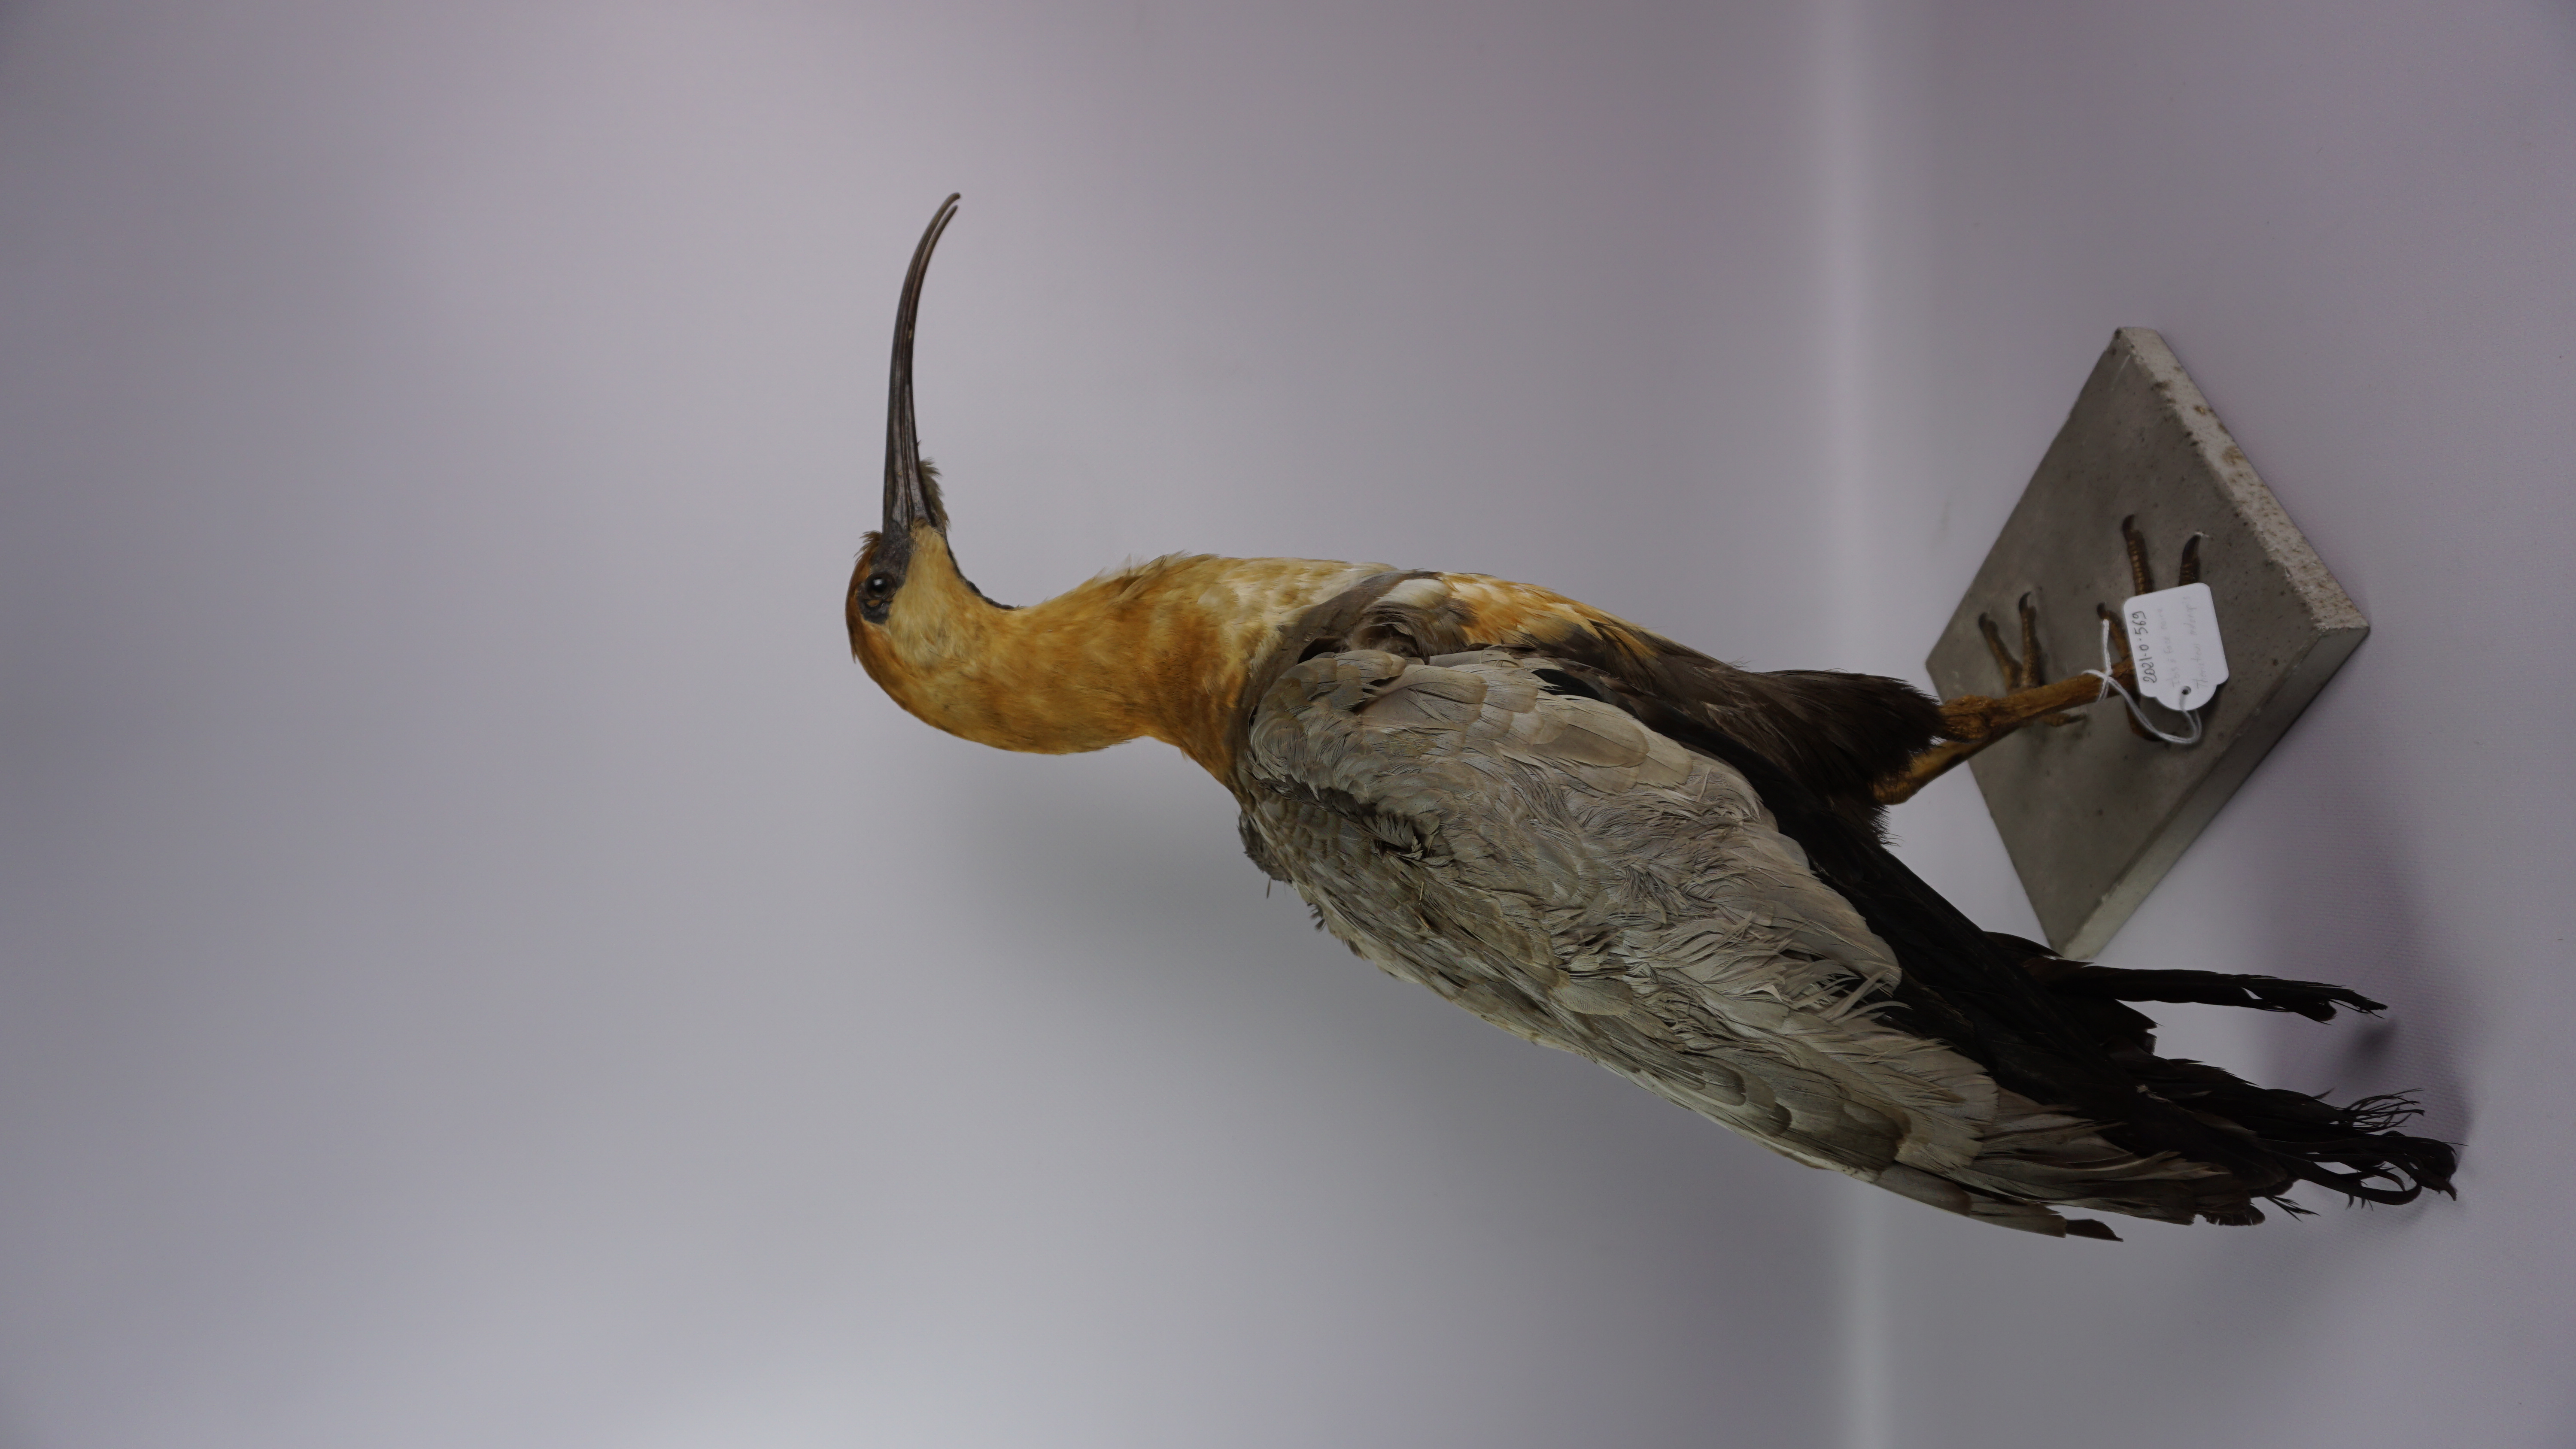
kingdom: Animalia
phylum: Chordata
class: Aves
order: Pelecaniformes
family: Threskiornithidae
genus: Theristicus
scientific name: Theristicus melanopis
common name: Black-faced ibis
